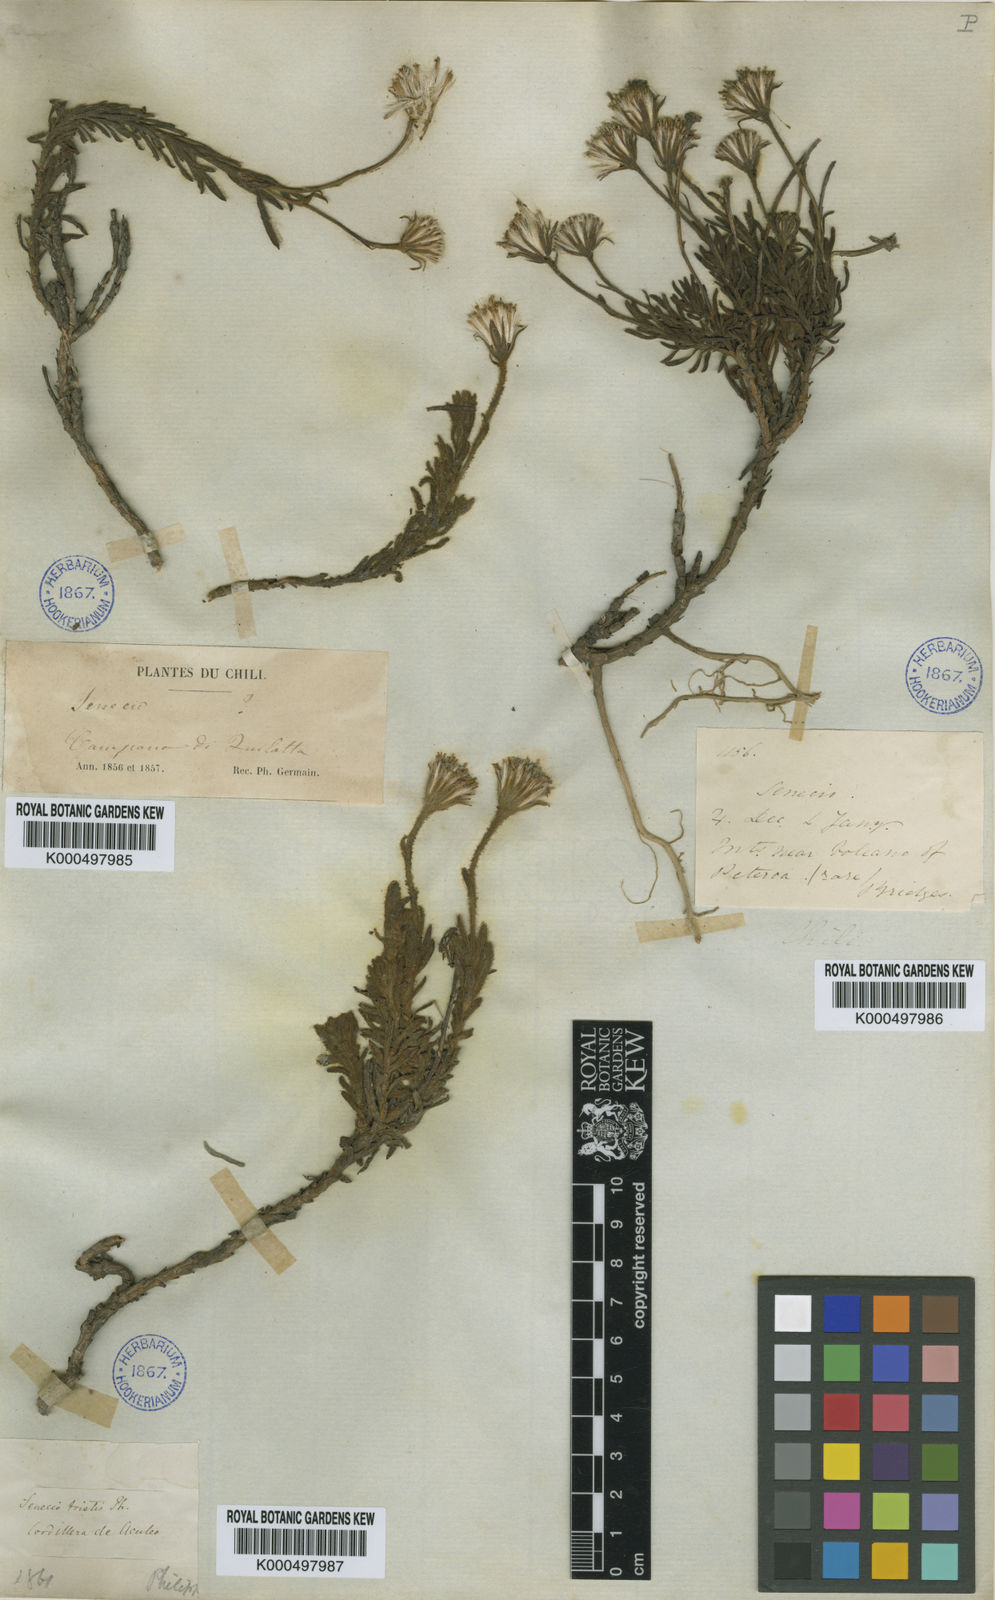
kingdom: Plantae
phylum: Tracheophyta
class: Magnoliopsida
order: Asterales
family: Asteraceae
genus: Senecio
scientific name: Senecio tristis
